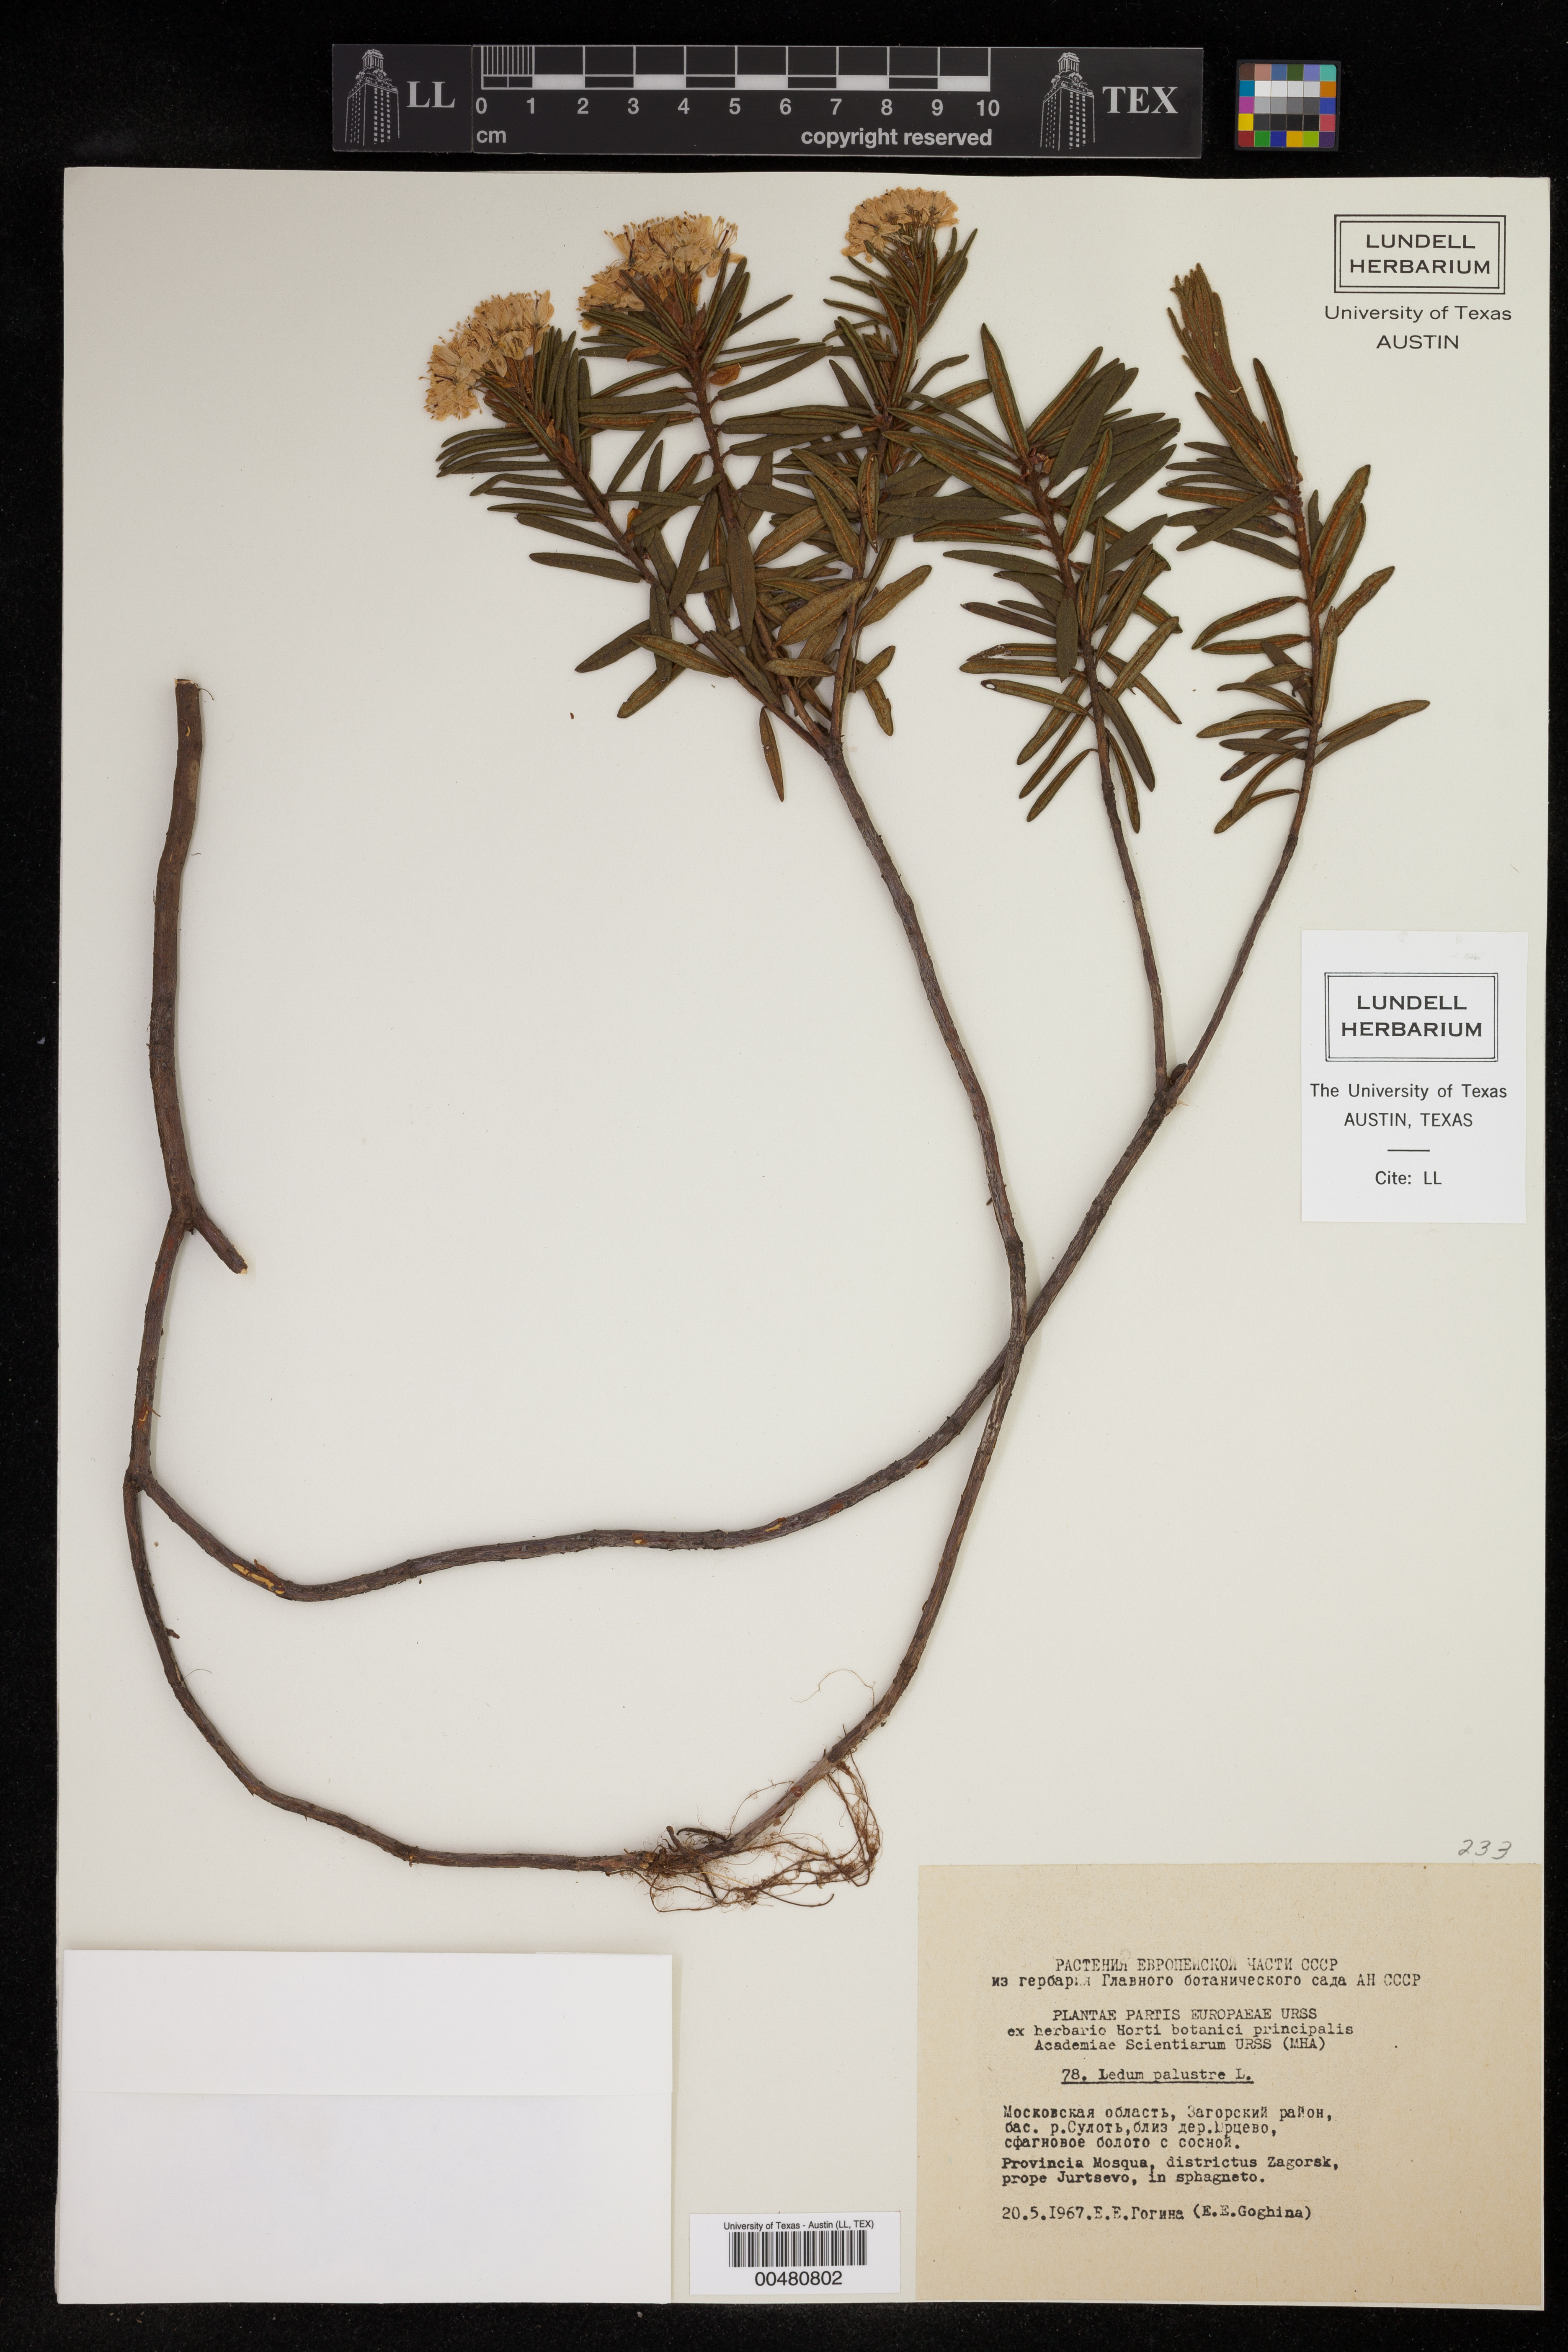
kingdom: Plantae
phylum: Tracheophyta
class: Magnoliopsida
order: Ericales
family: Ericaceae
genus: Rhododendron
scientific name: Rhododendron
